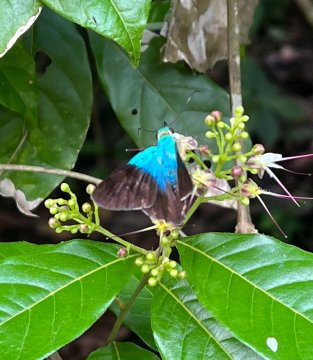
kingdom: Animalia
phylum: Arthropoda
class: Insecta
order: Lepidoptera
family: Hesperiidae
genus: Astraptes
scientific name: Astraptes alector
